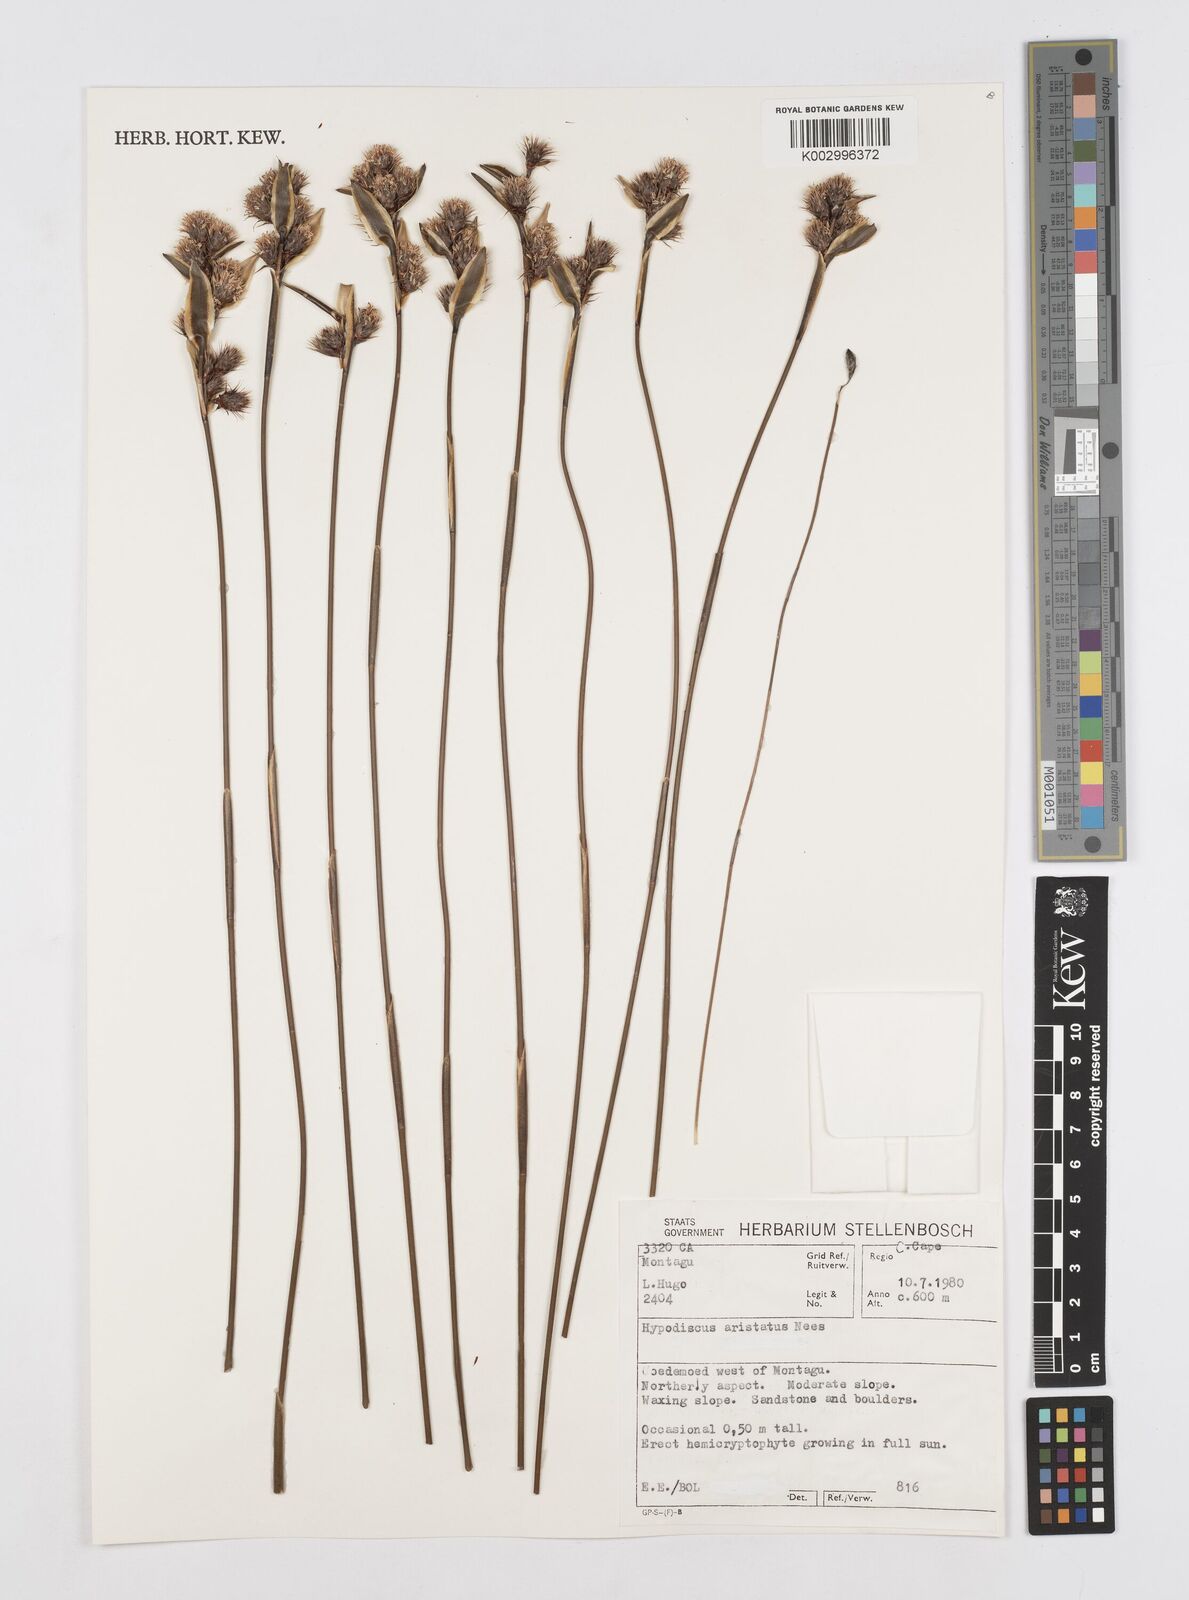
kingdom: Plantae
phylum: Tracheophyta
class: Liliopsida
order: Poales
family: Restionaceae
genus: Hypodiscus
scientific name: Hypodiscus aristatus
